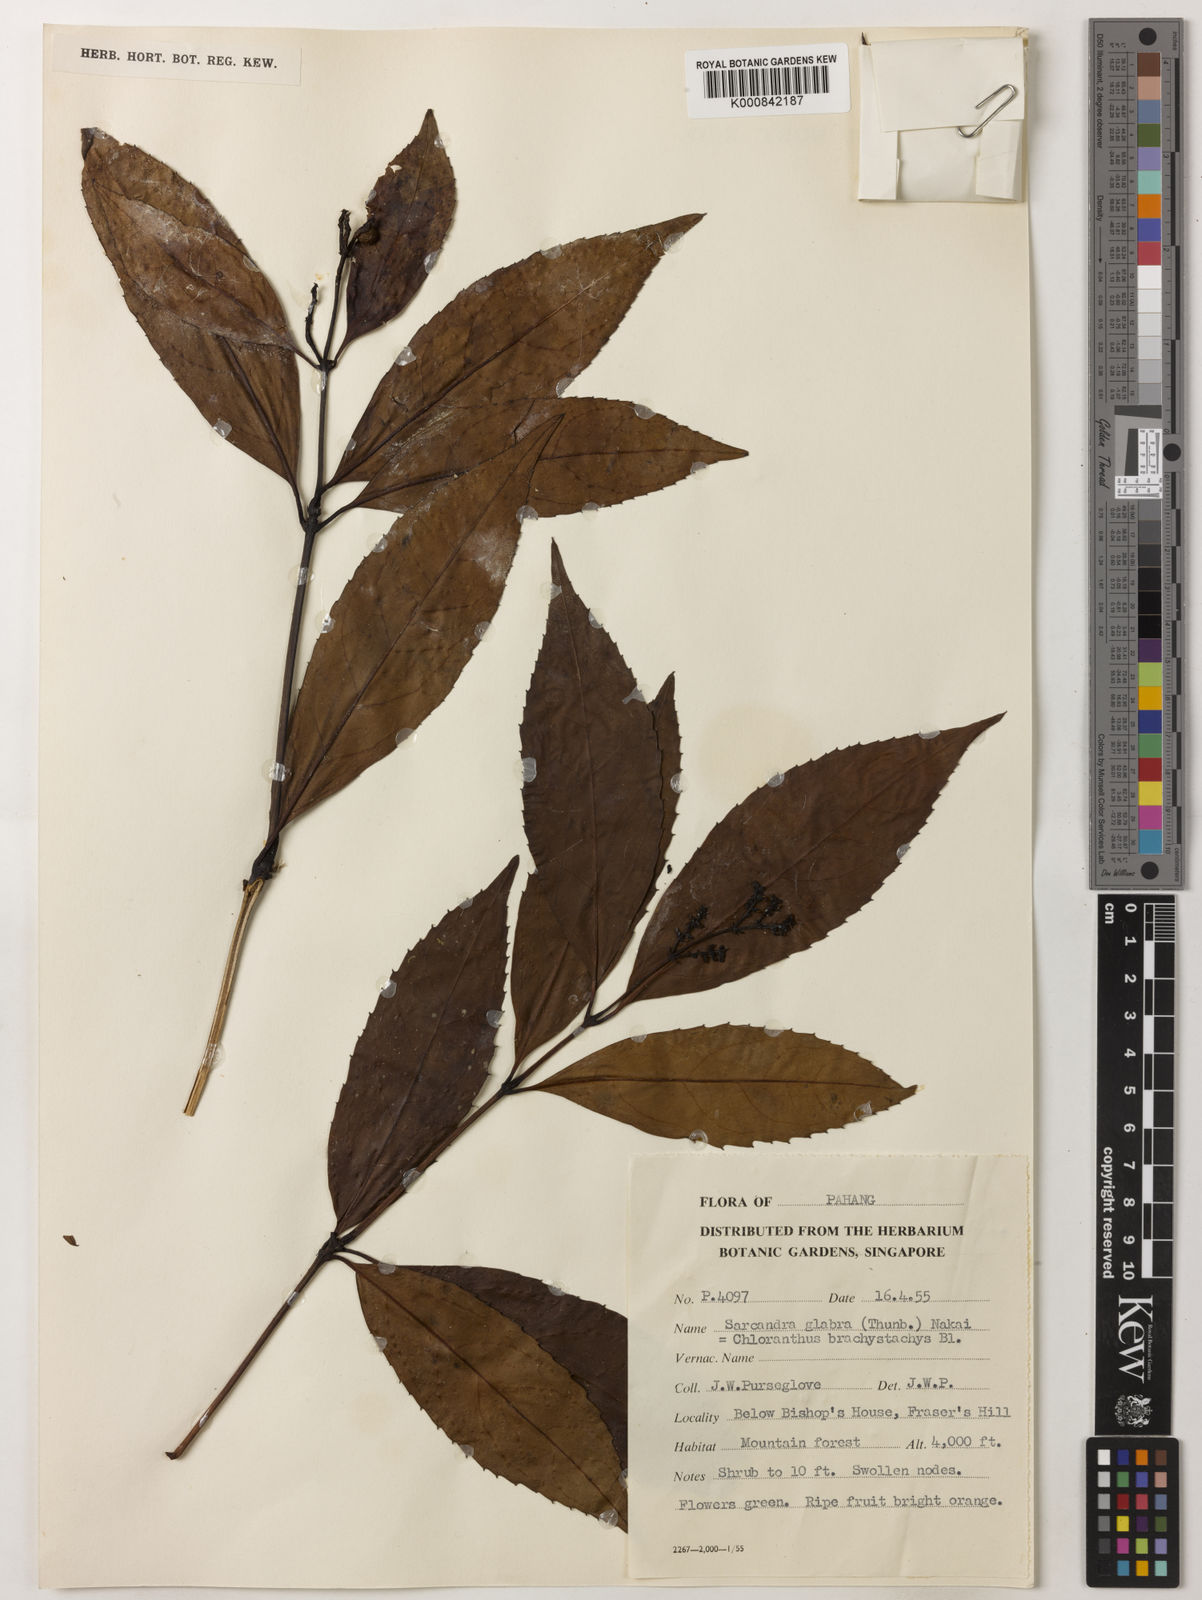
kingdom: Plantae
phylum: Tracheophyta
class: Magnoliopsida
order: Chloranthales
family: Chloranthaceae
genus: Sarcandra
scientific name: Sarcandra glabra
